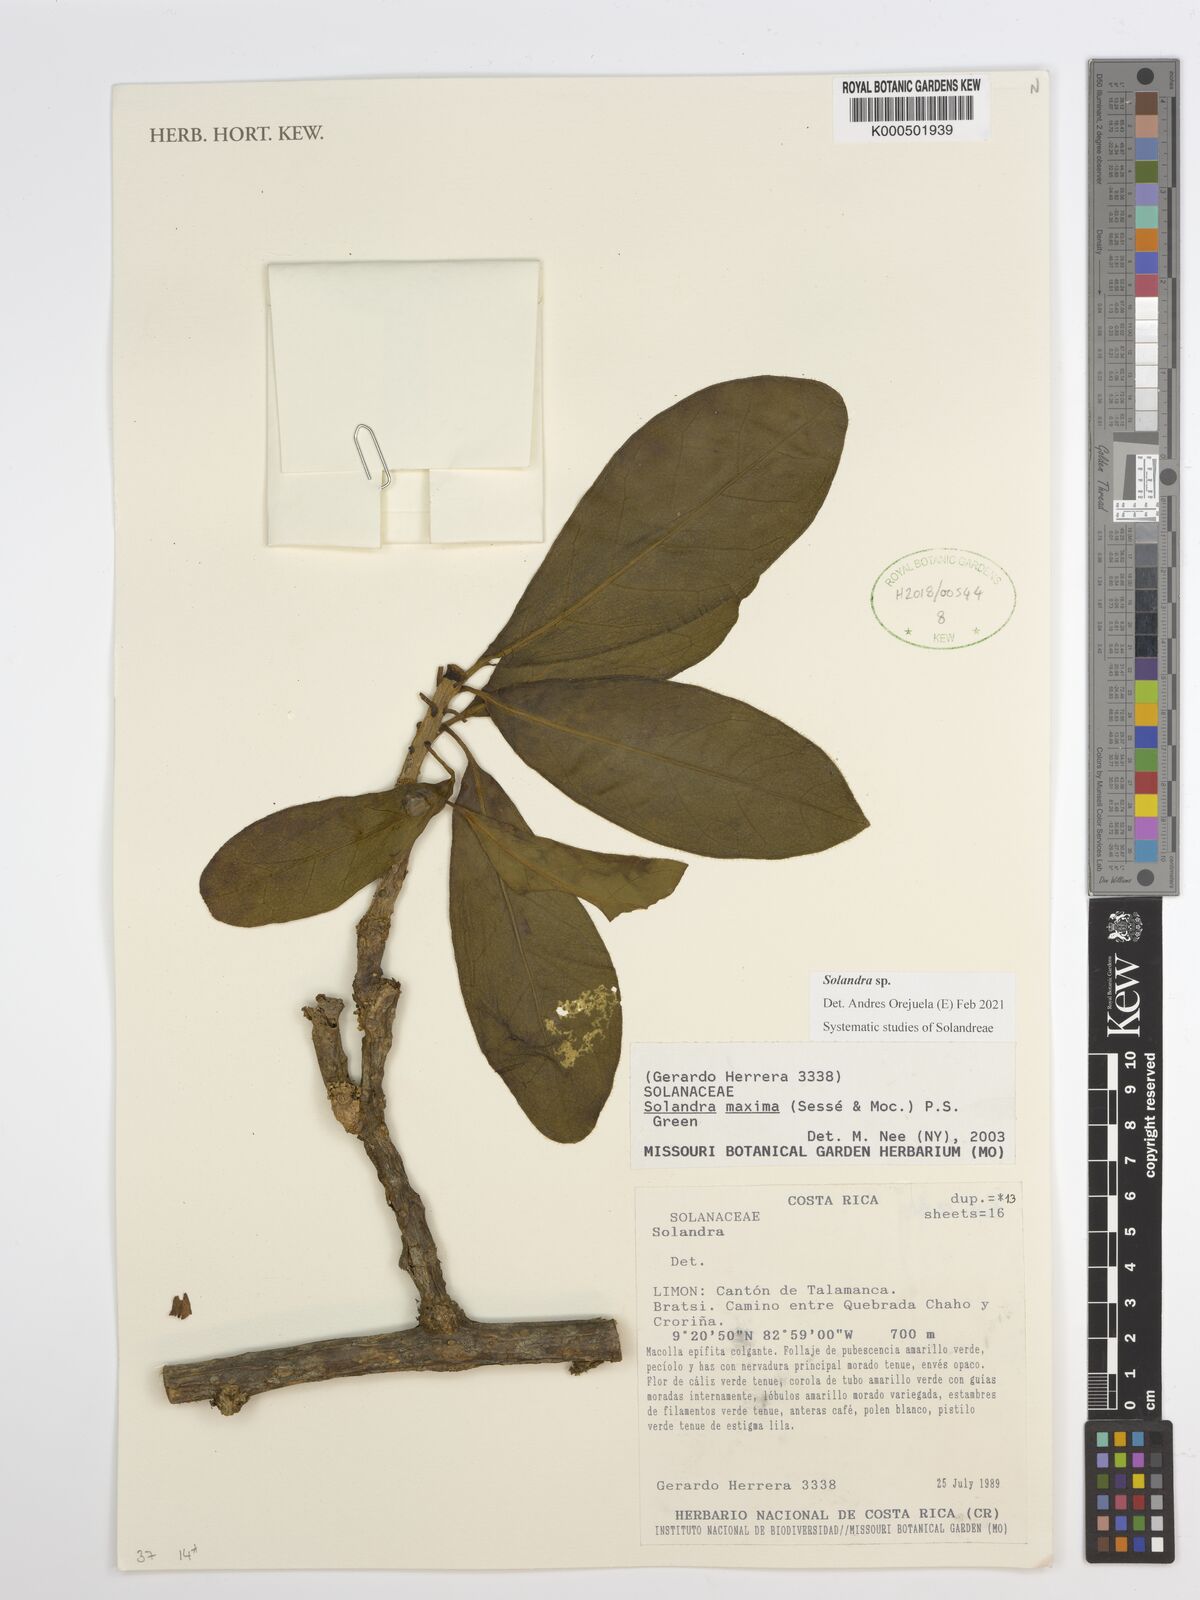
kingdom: Plantae
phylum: Tracheophyta
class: Magnoliopsida
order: Solanales
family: Solanaceae
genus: Solandra
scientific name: Solandra
